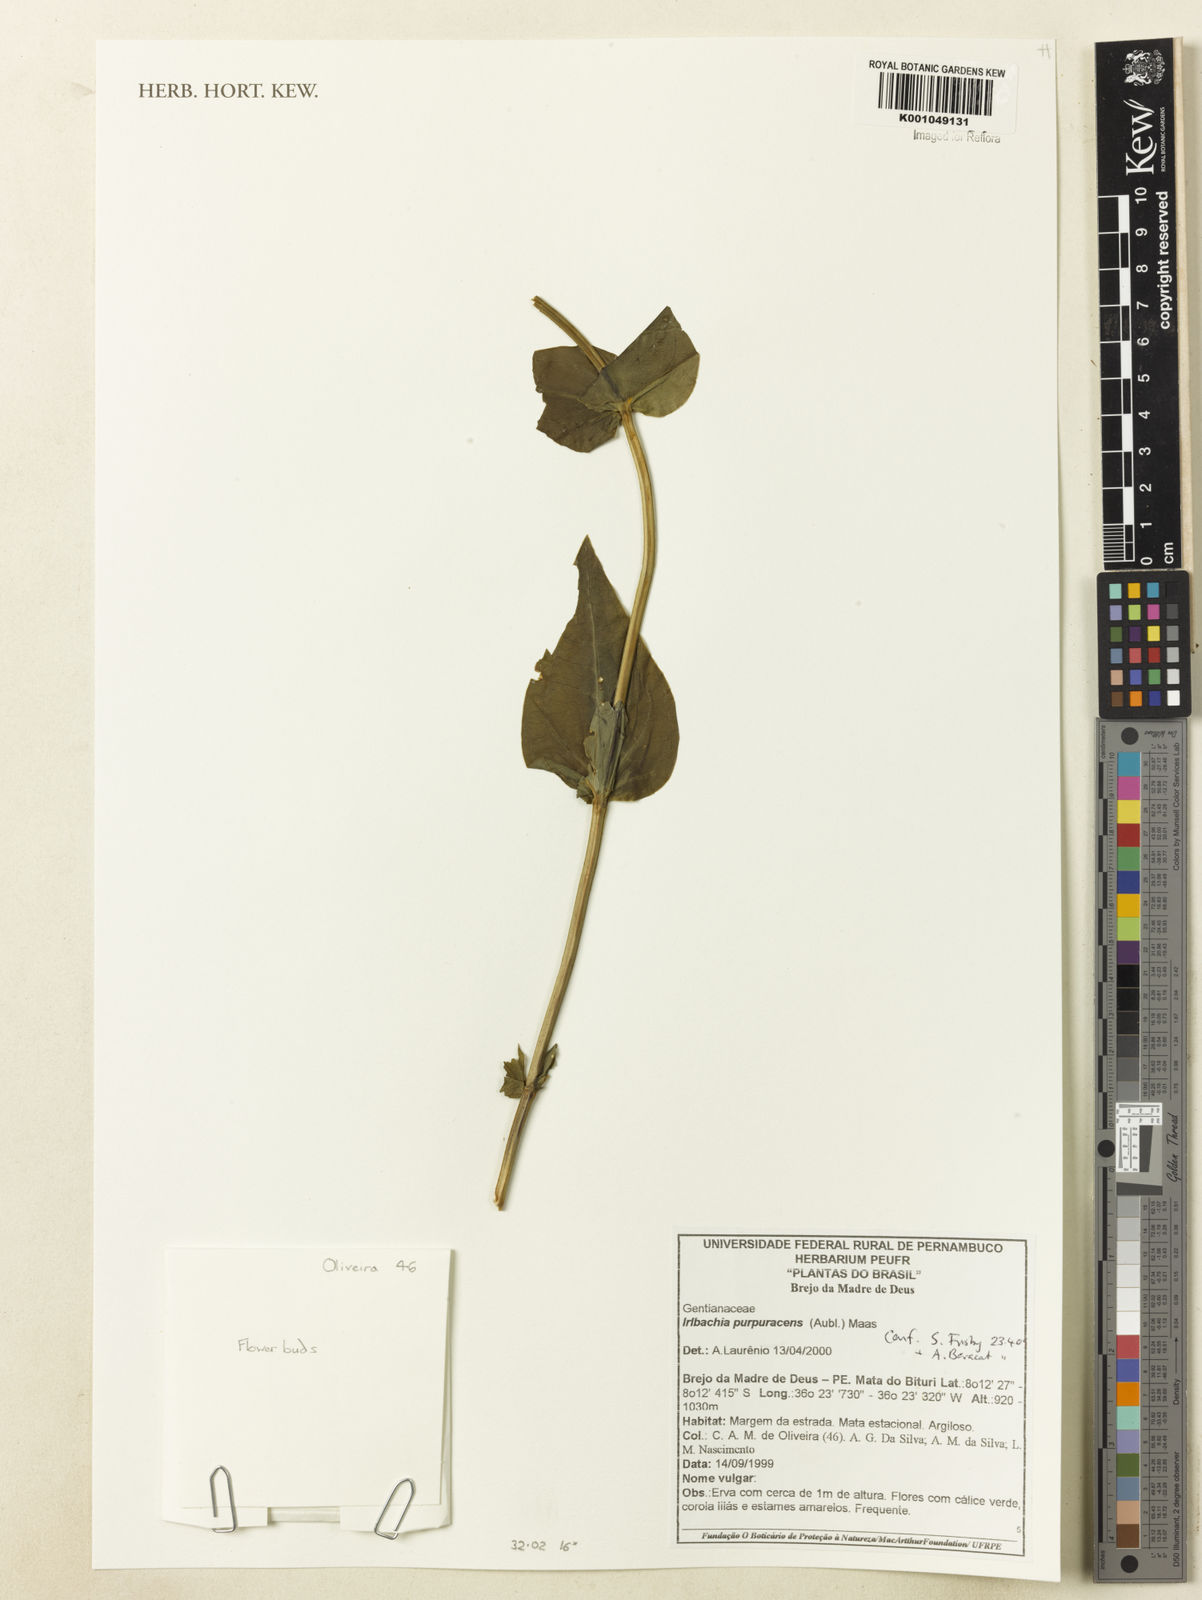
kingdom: Plantae
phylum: Tracheophyta
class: Magnoliopsida
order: Gentianales
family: Gentianaceae
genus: Chelonanthus
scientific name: Chelonanthus purpurascens
